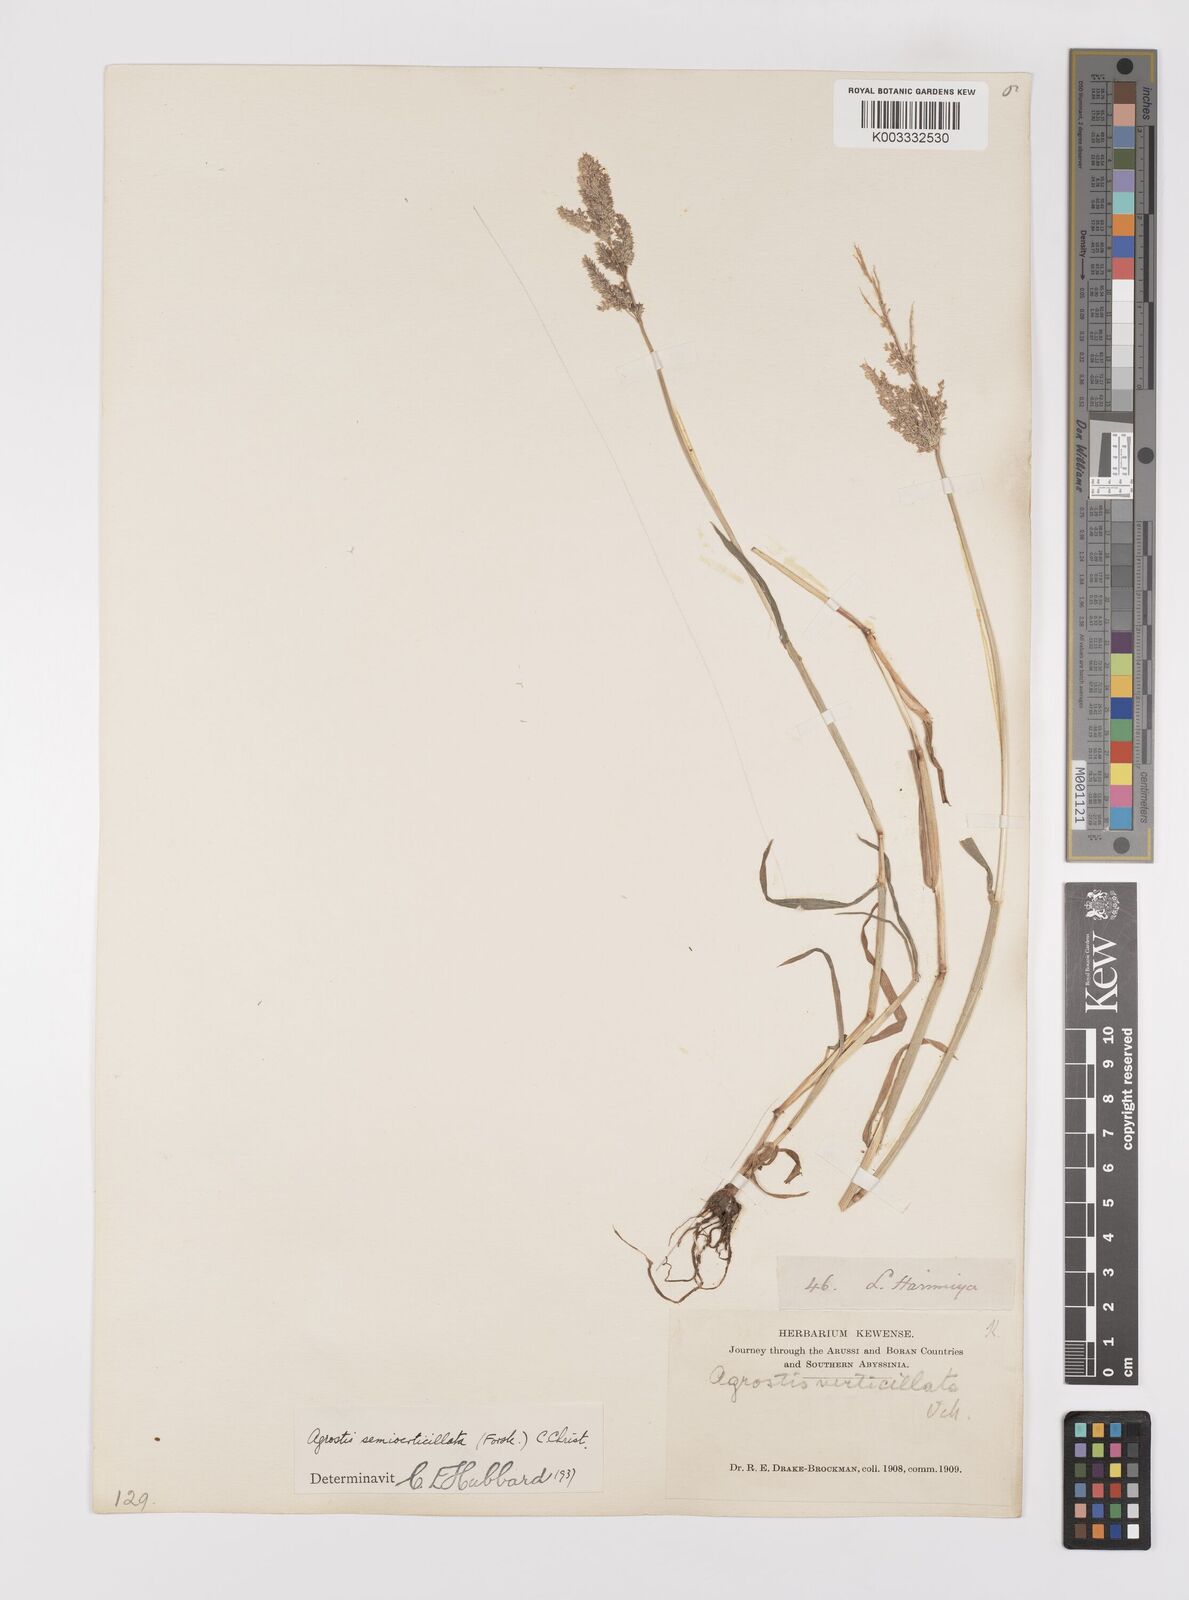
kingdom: Plantae
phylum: Tracheophyta
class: Liliopsida
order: Poales
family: Poaceae
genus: Polypogon
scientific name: Polypogon viridis
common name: Water bent
